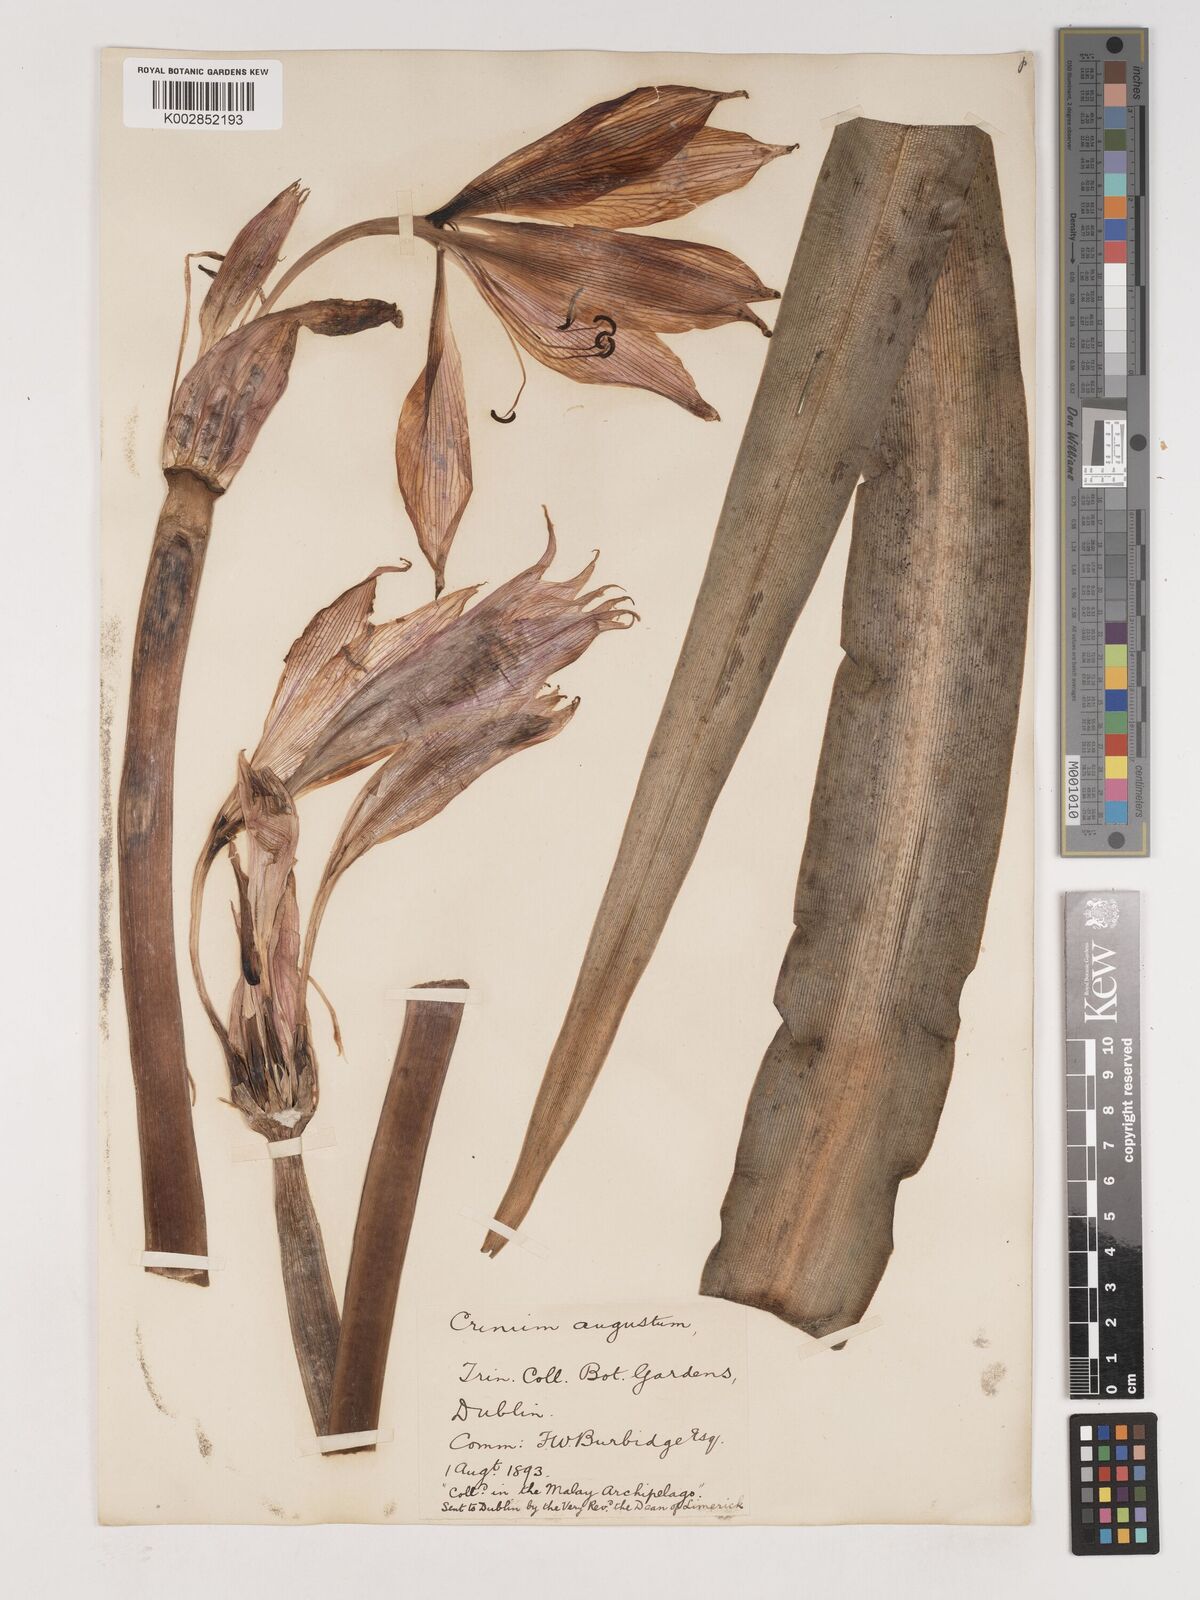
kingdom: Plantae
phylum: Tracheophyta
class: Liliopsida
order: Asparagales
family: Amaryllidaceae
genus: Crinum
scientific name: Crinum latifolium
